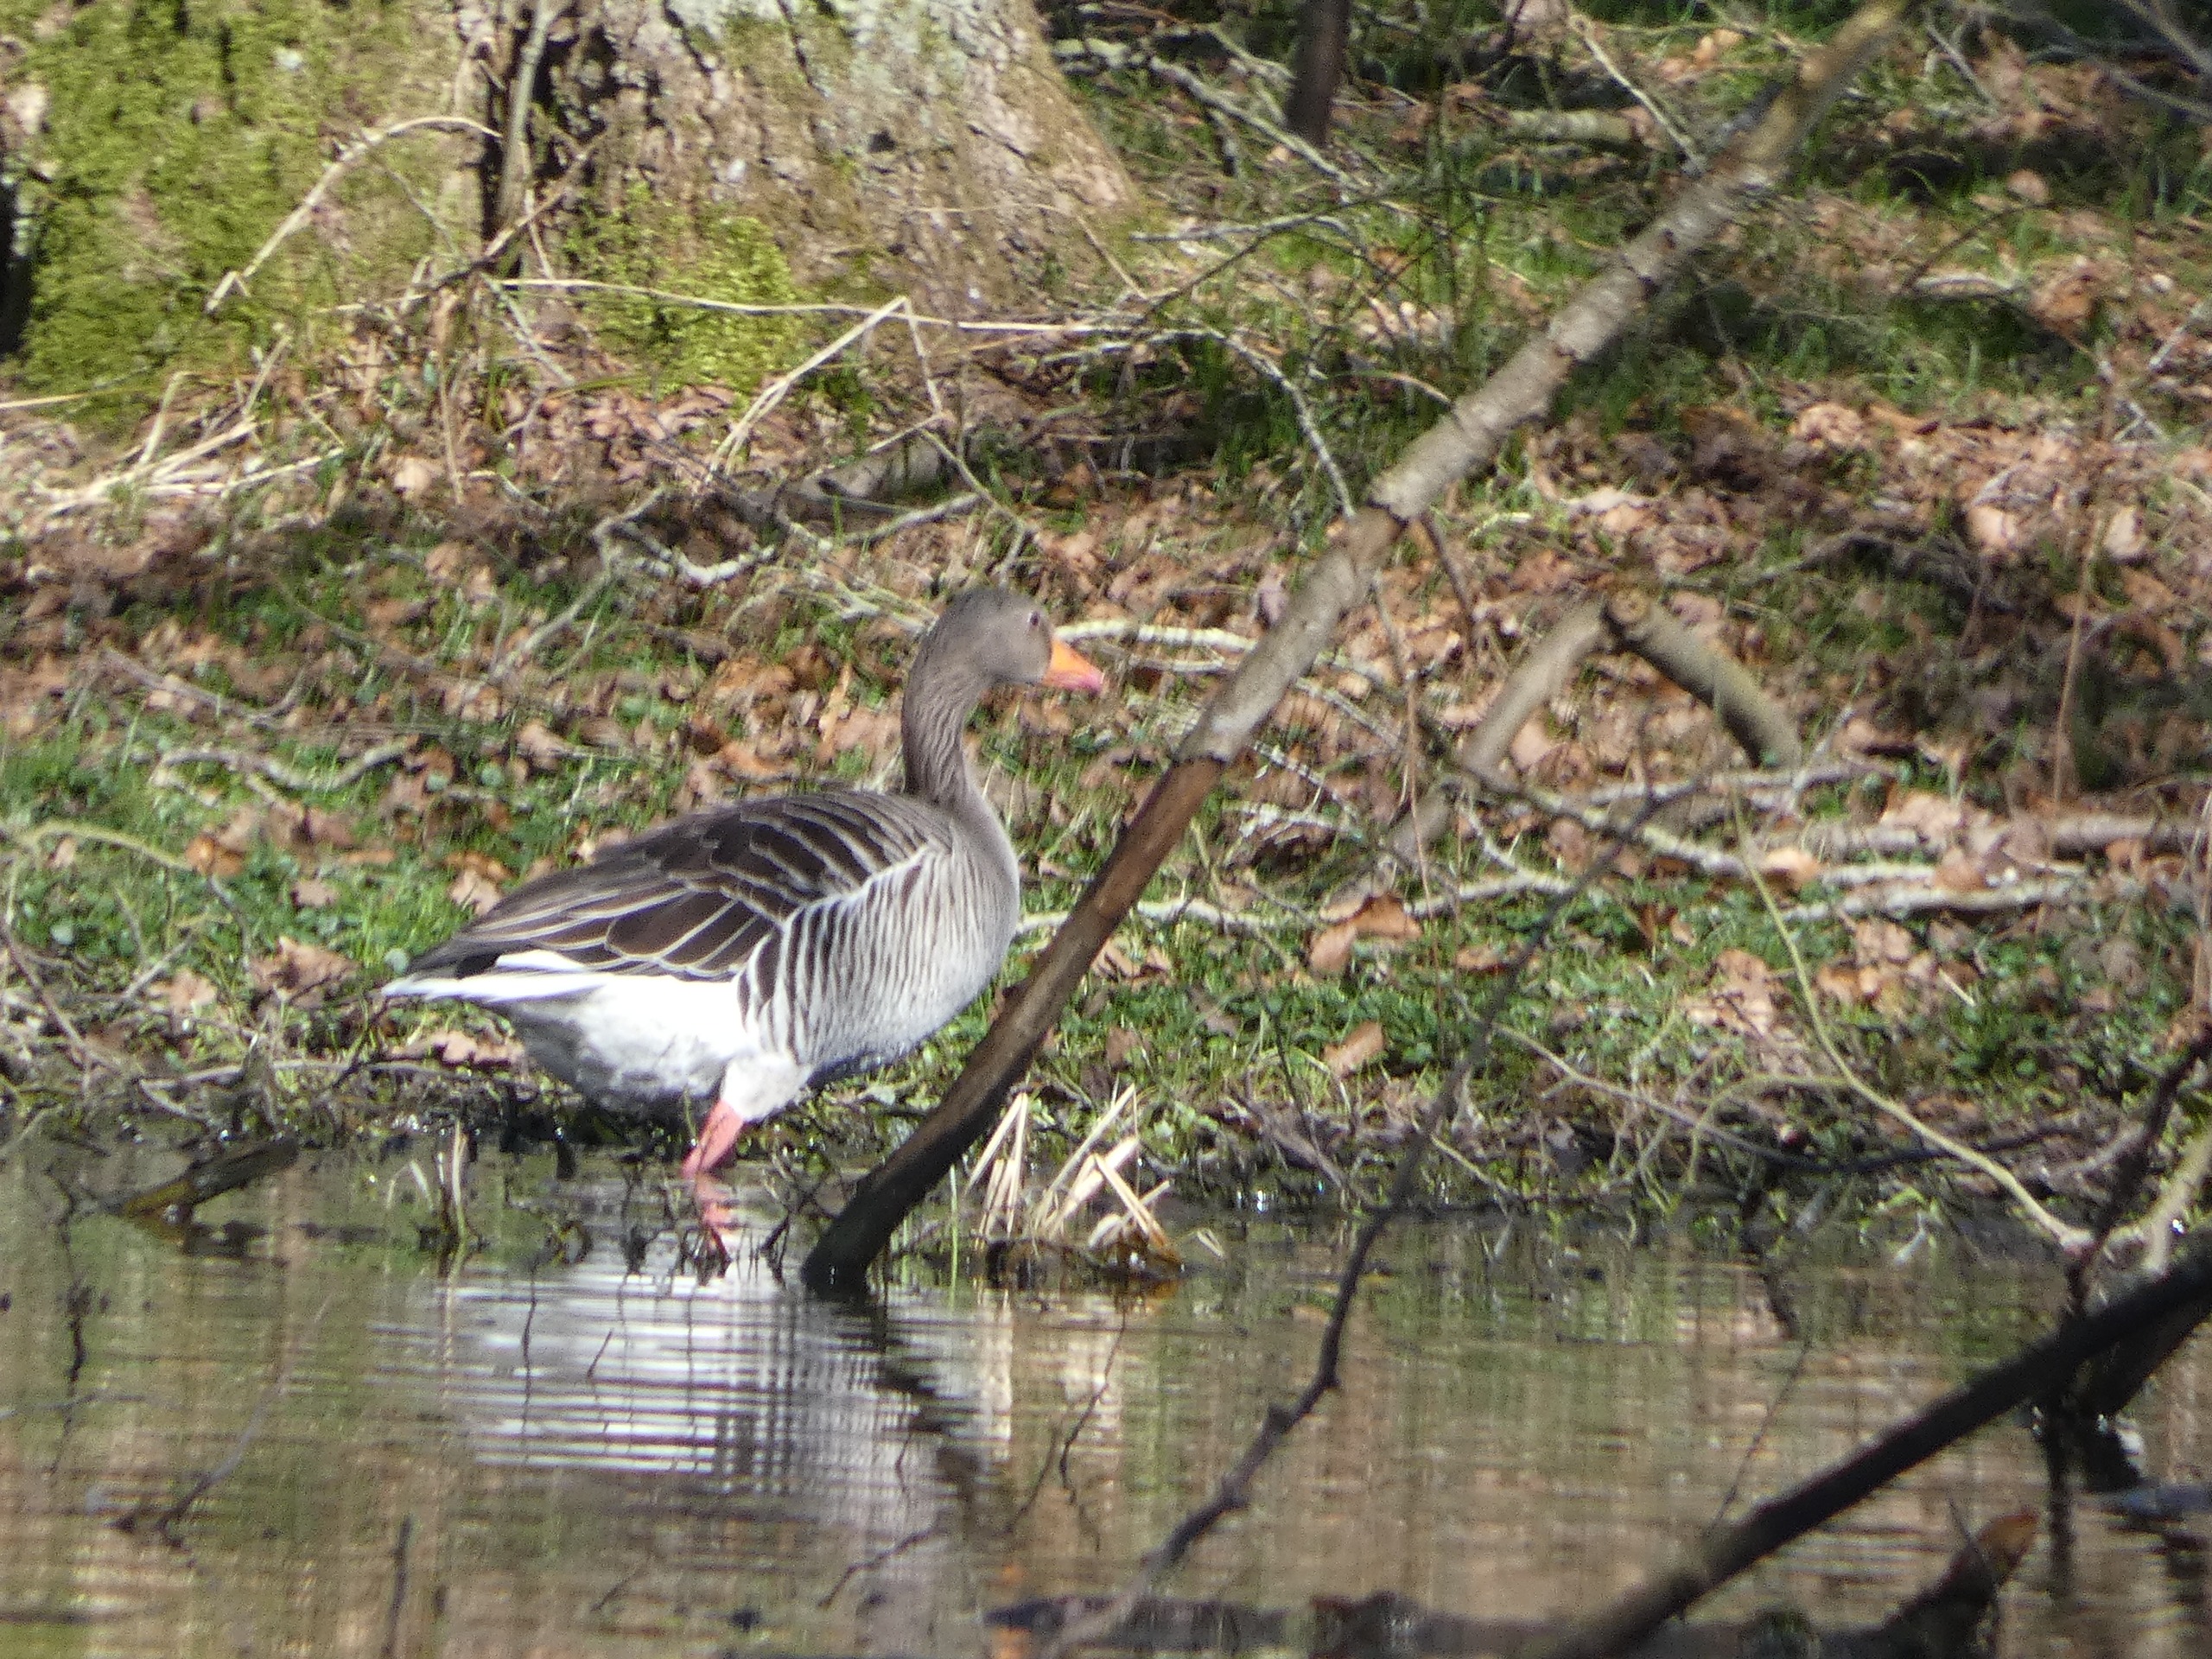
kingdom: Animalia
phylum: Chordata
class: Aves
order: Anseriformes
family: Anatidae
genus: Anser
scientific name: Anser anser
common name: Grågås
